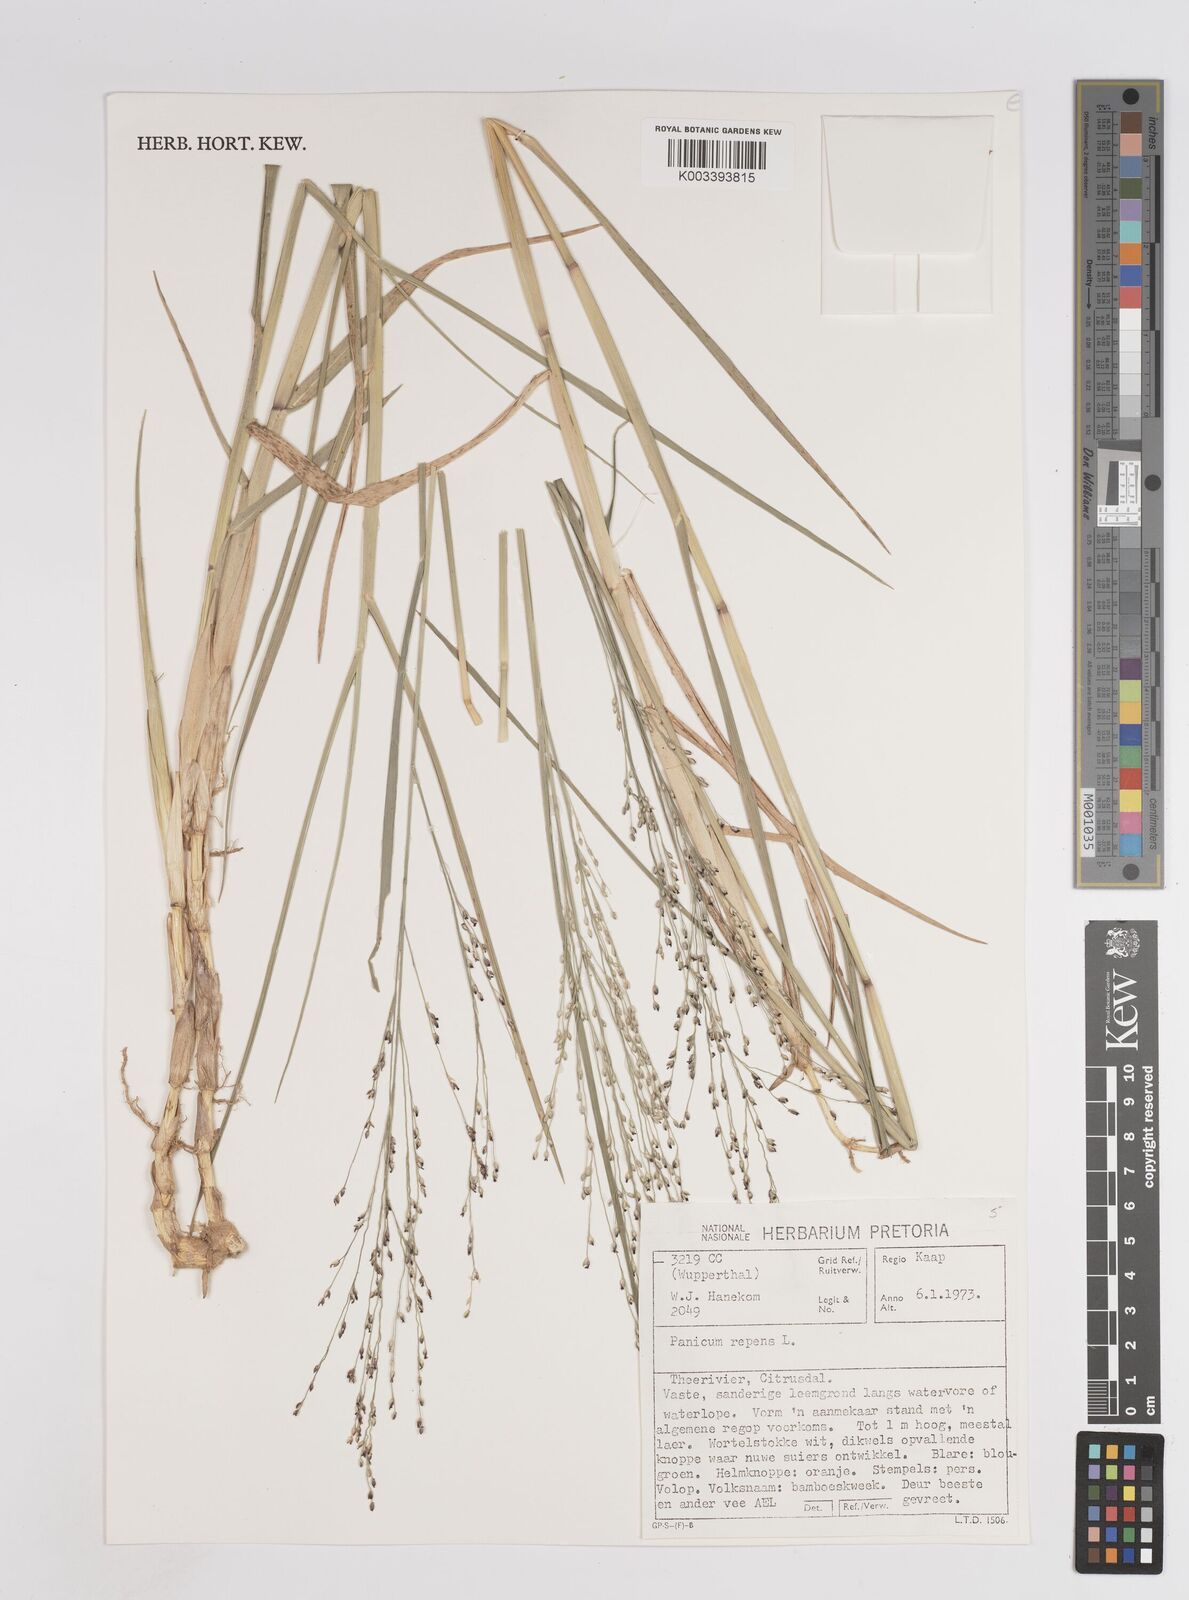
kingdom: Plantae
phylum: Tracheophyta
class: Liliopsida
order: Poales
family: Poaceae
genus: Panicum
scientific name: Panicum repens
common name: Torpedo grass
